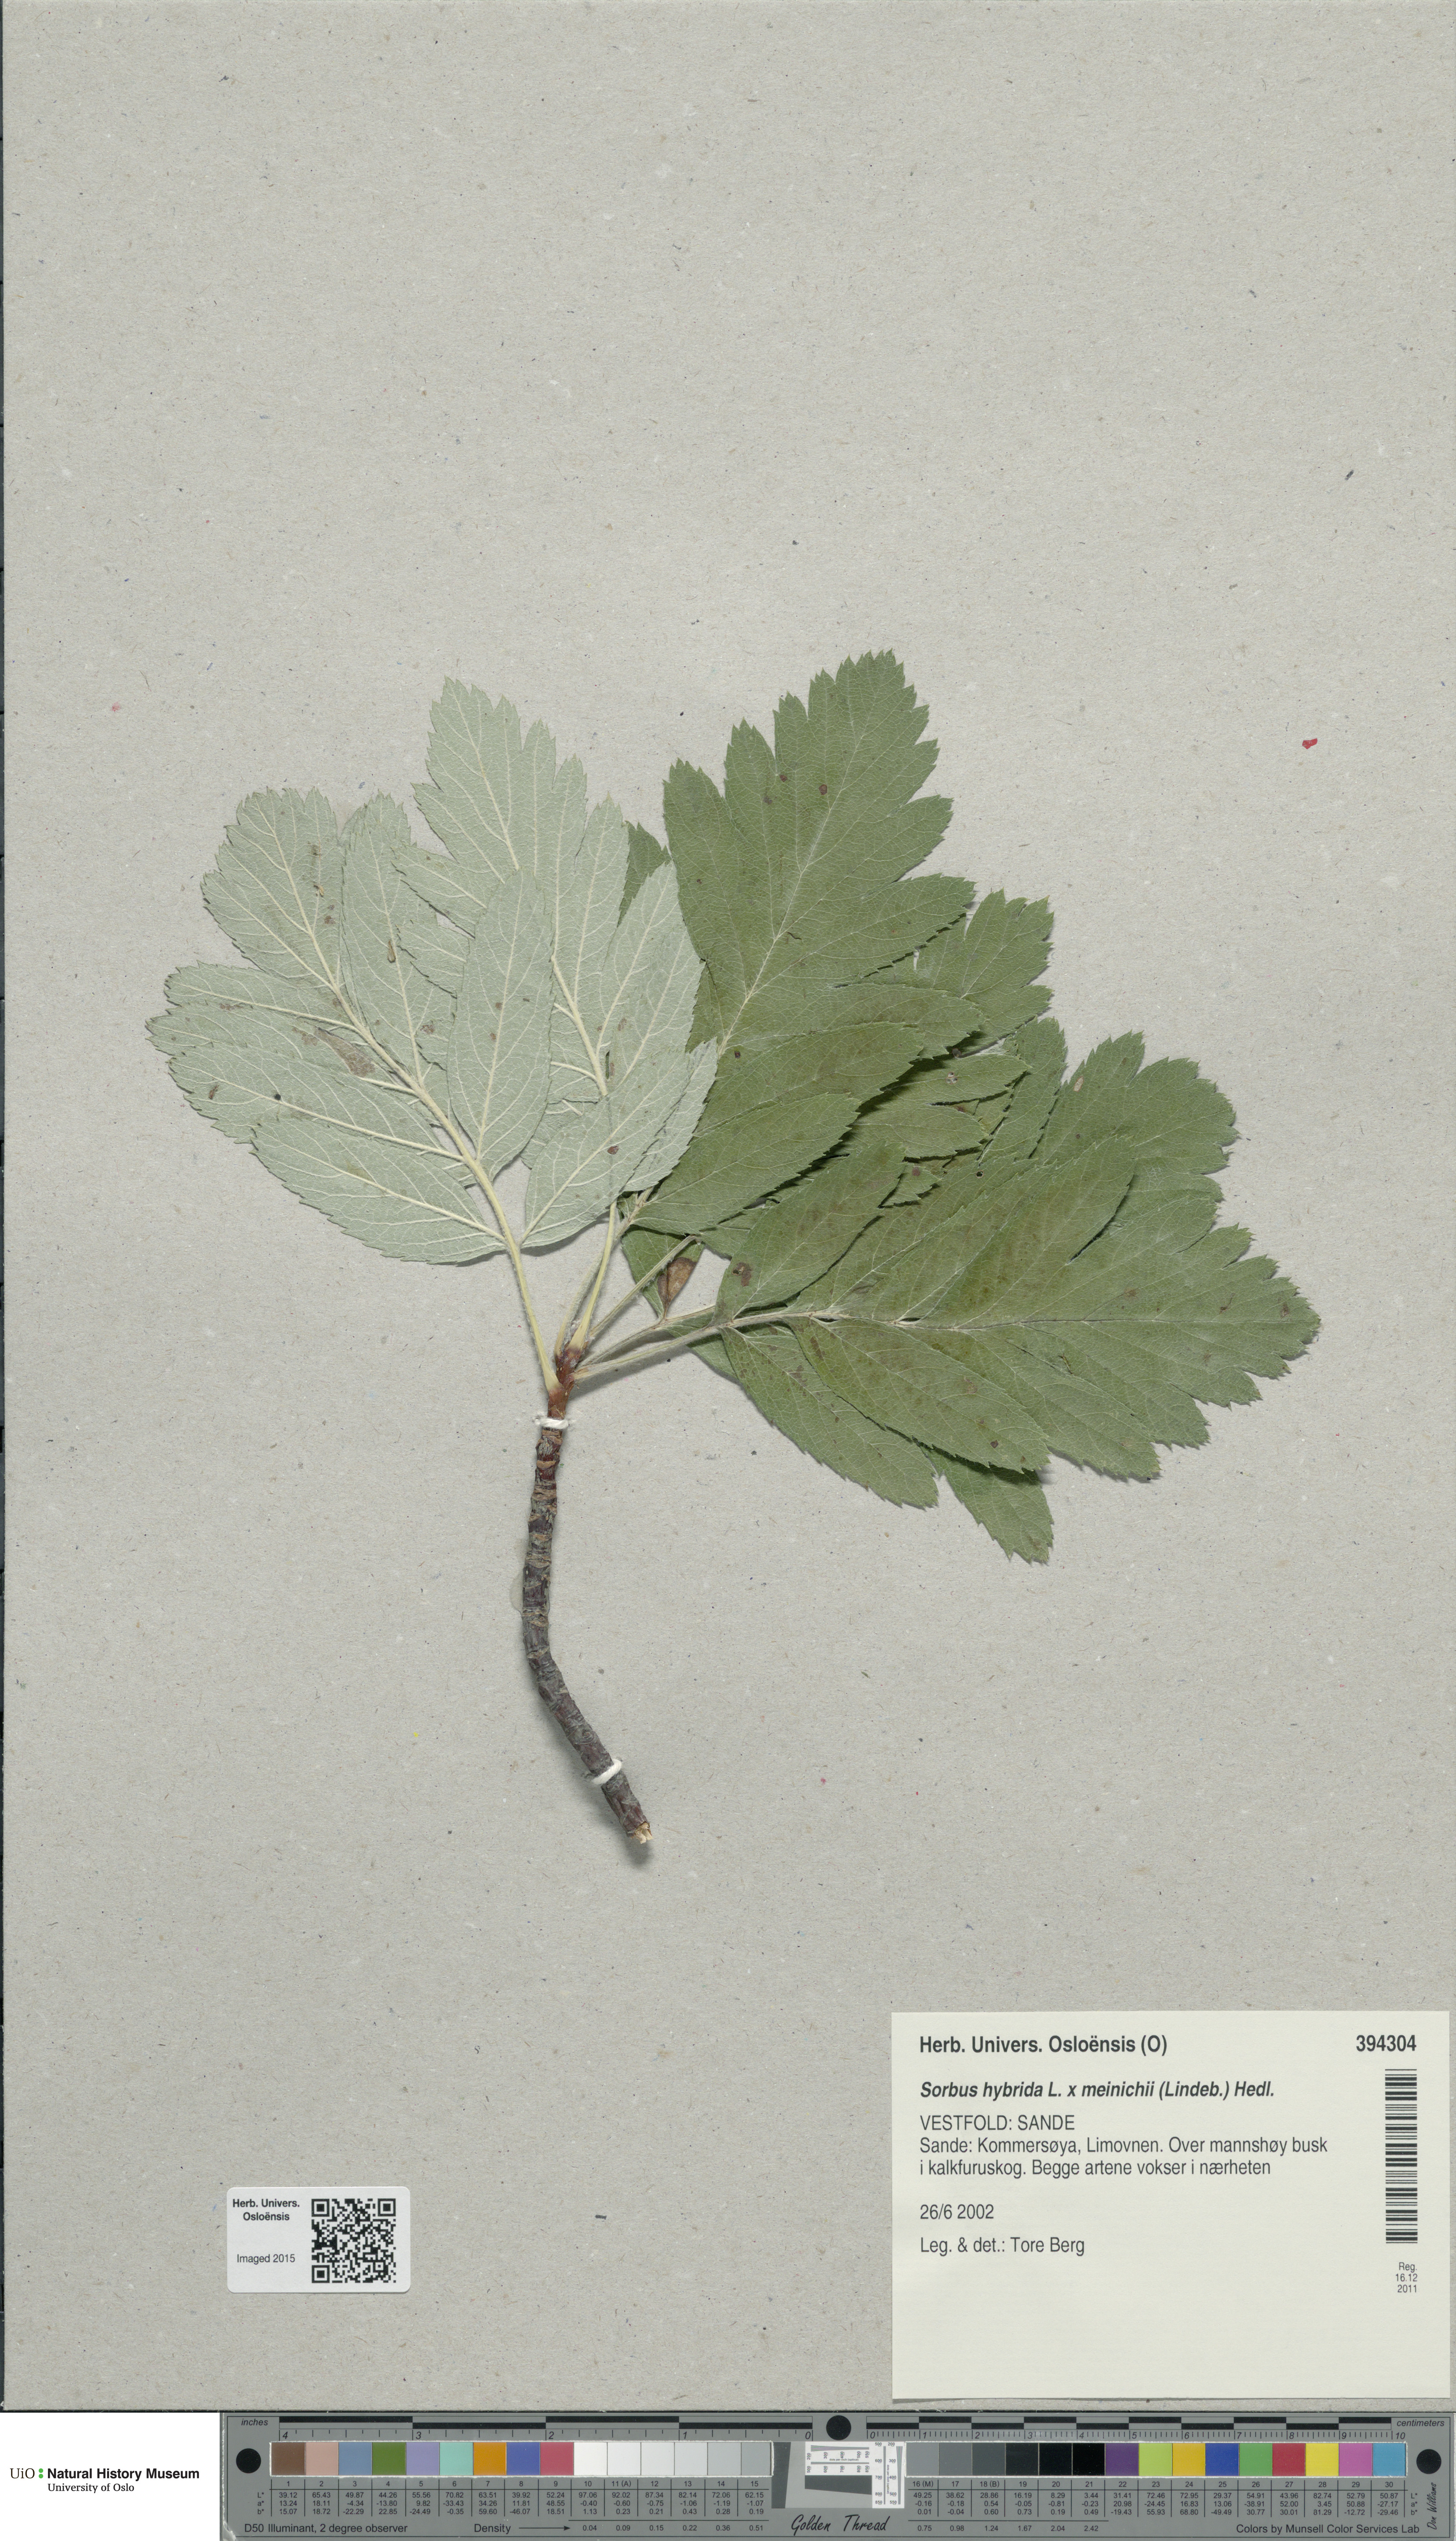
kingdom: Plantae
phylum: Tracheophyta
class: Magnoliopsida
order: Rosales
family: Rosaceae
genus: Hedlundia
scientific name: Hedlundia
